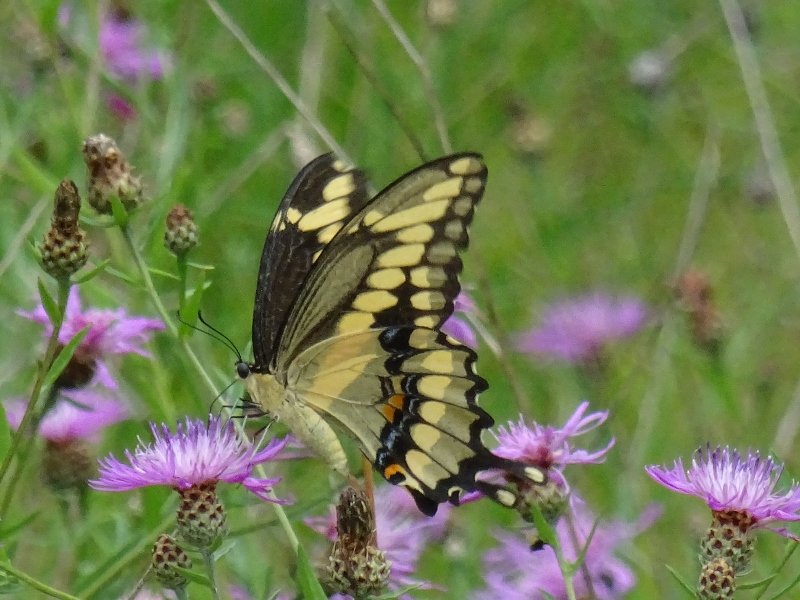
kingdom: Animalia
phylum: Arthropoda
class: Insecta
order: Lepidoptera
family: Papilionidae
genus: Papilio
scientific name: Papilio cresphontes
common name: Eastern Giant Swallowtail
